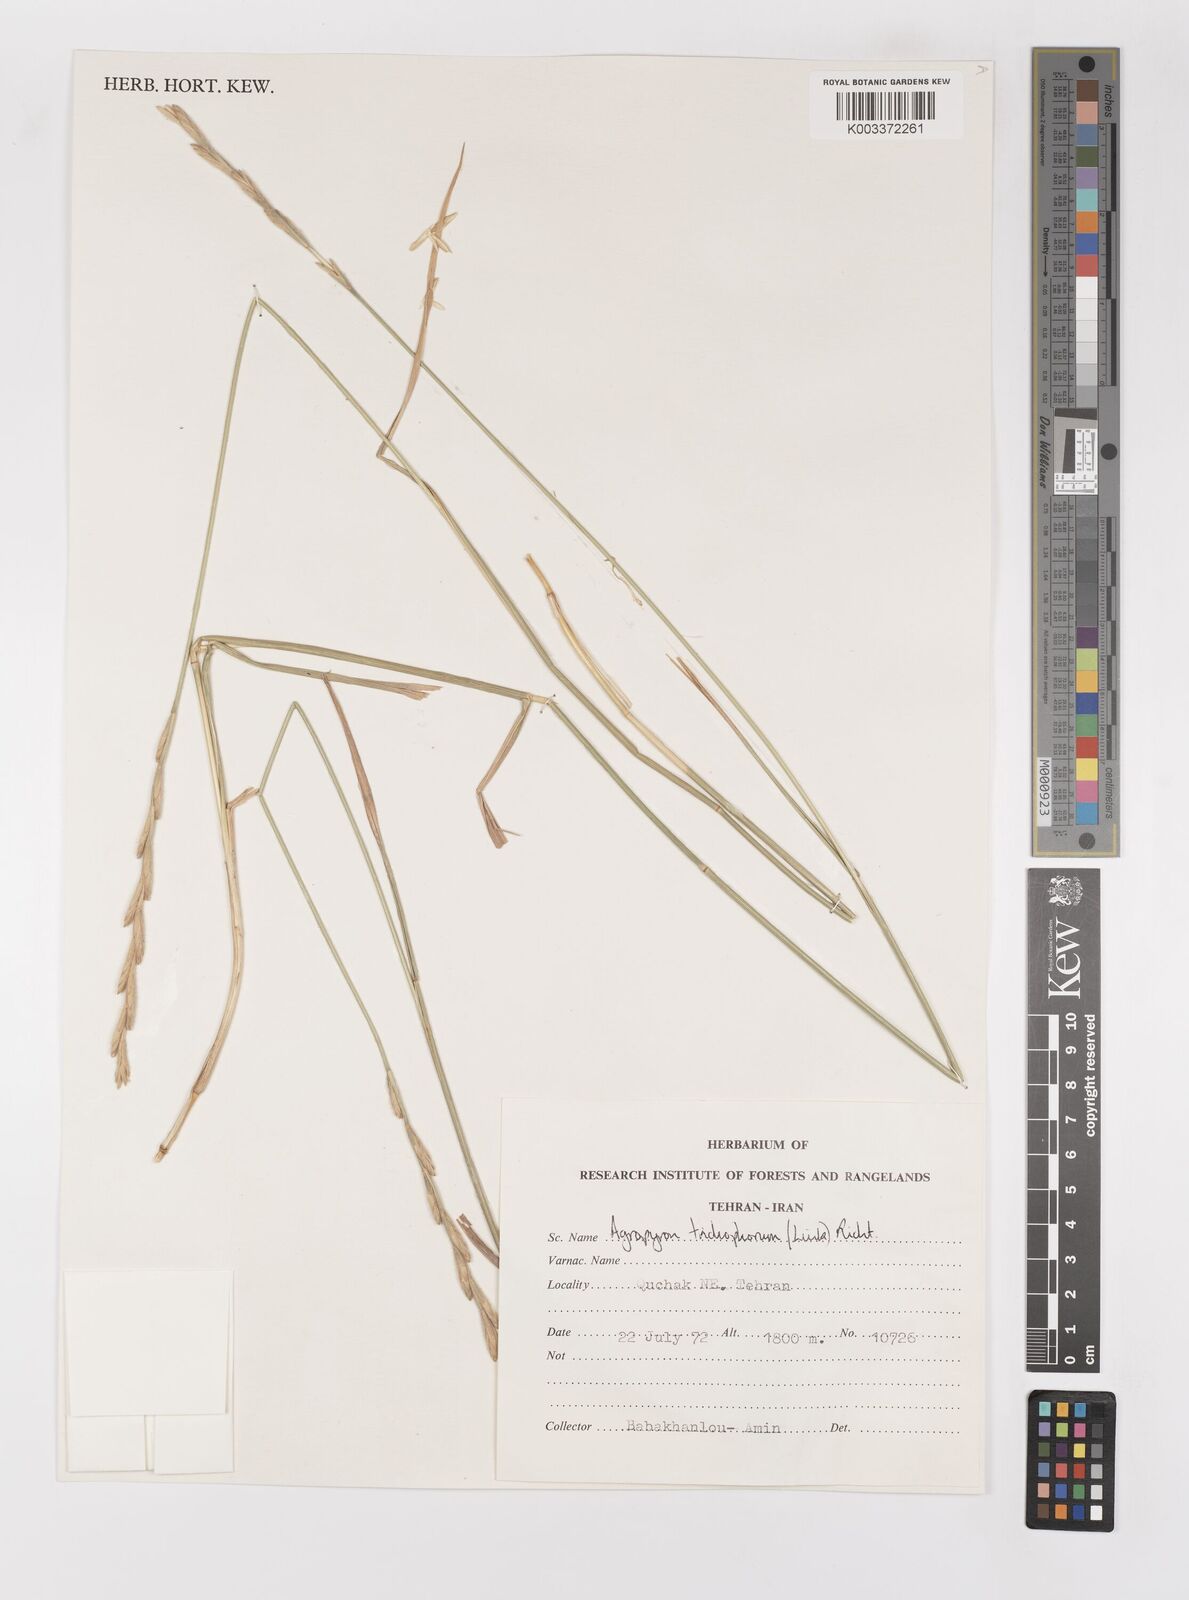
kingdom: Plantae
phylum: Tracheophyta
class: Liliopsida
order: Poales
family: Poaceae
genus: Thinopyrum
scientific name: Thinopyrum intermedium
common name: Intermediate wheatgrass
